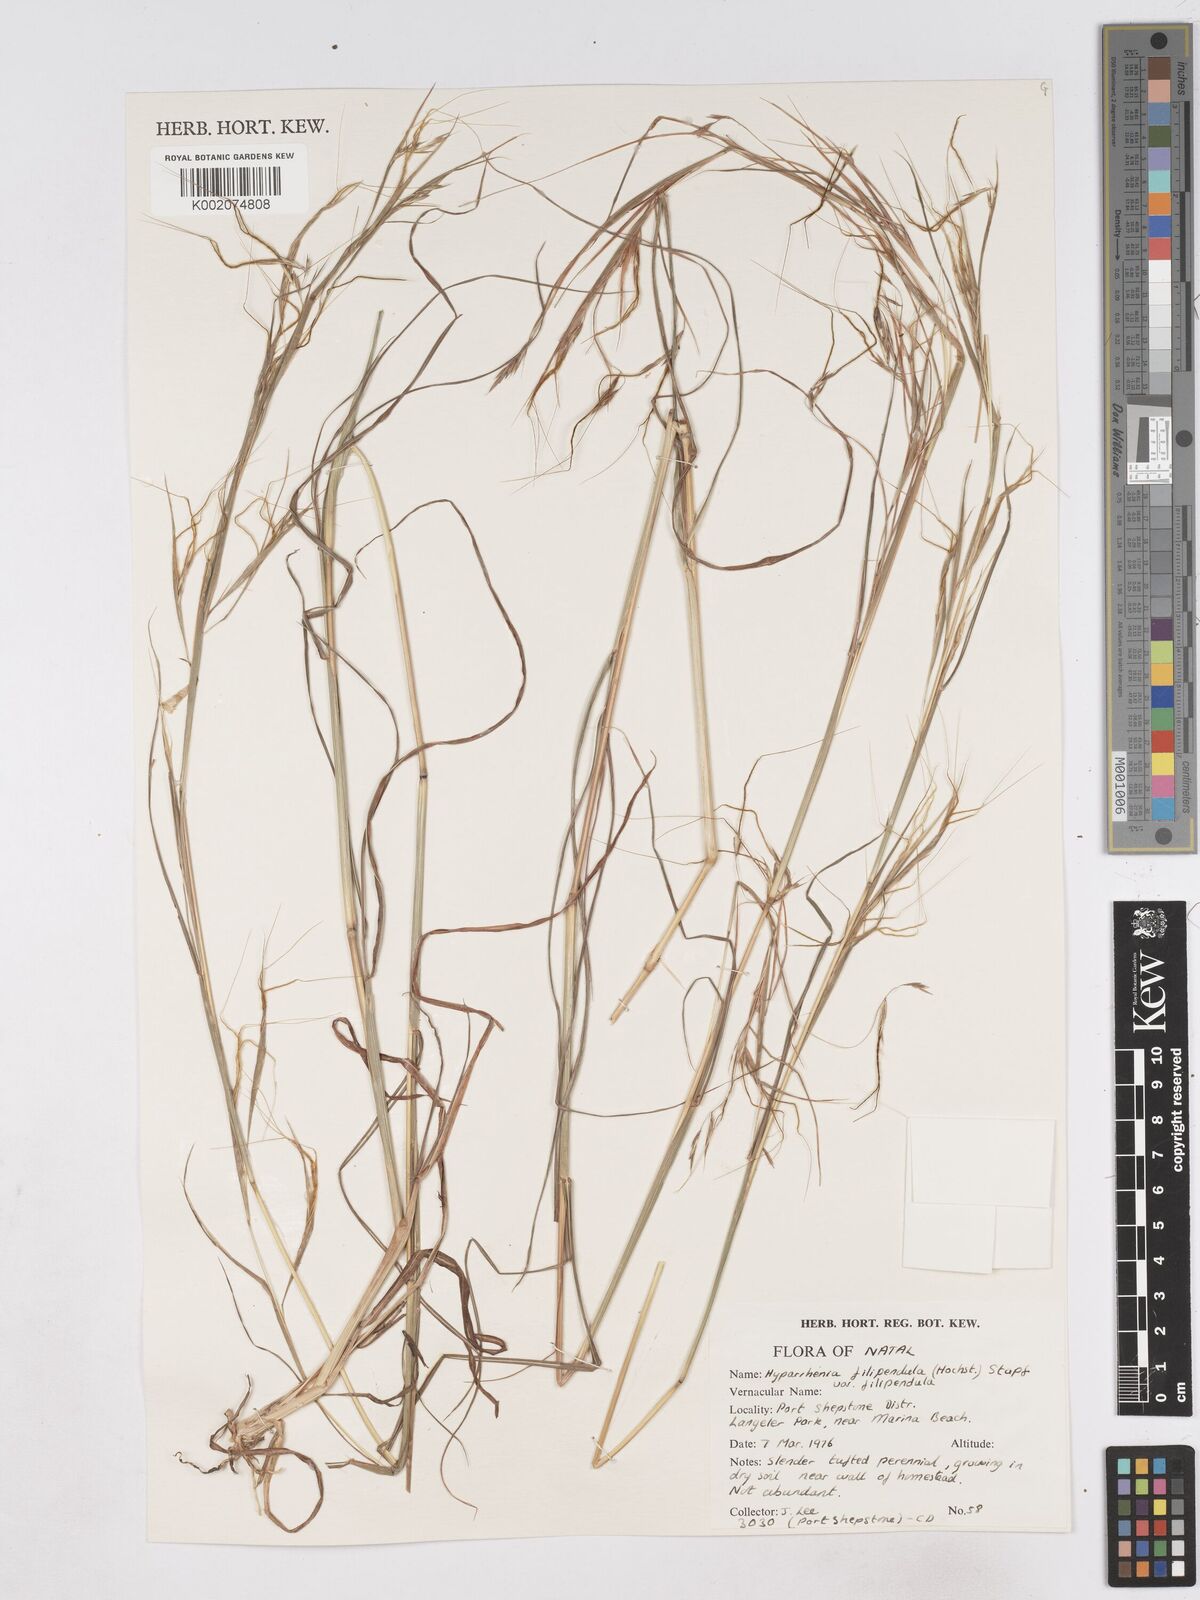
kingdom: Plantae
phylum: Tracheophyta
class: Liliopsida
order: Poales
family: Poaceae
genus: Hyparrhenia
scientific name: Hyparrhenia filipendula
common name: Tambookie grass
